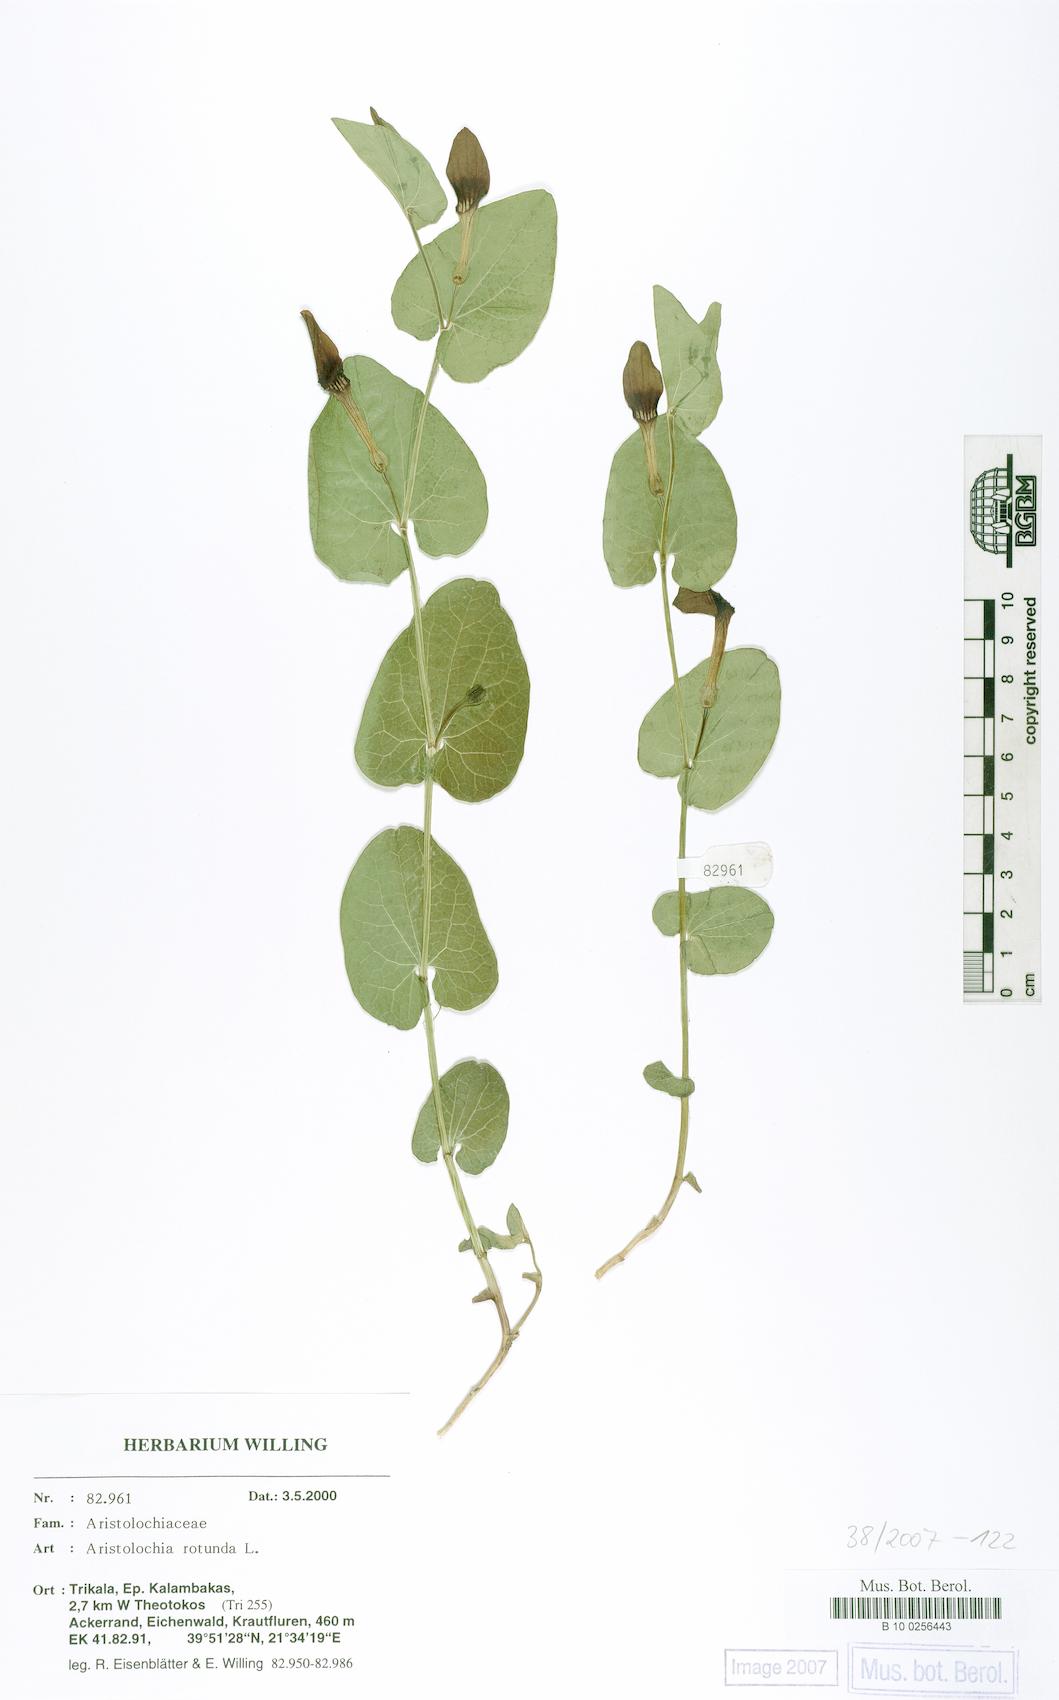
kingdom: Plantae
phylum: Tracheophyta
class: Magnoliopsida
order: Piperales
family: Aristolochiaceae
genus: Aristolochia
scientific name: Aristolochia rotunda
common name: Smearwort
